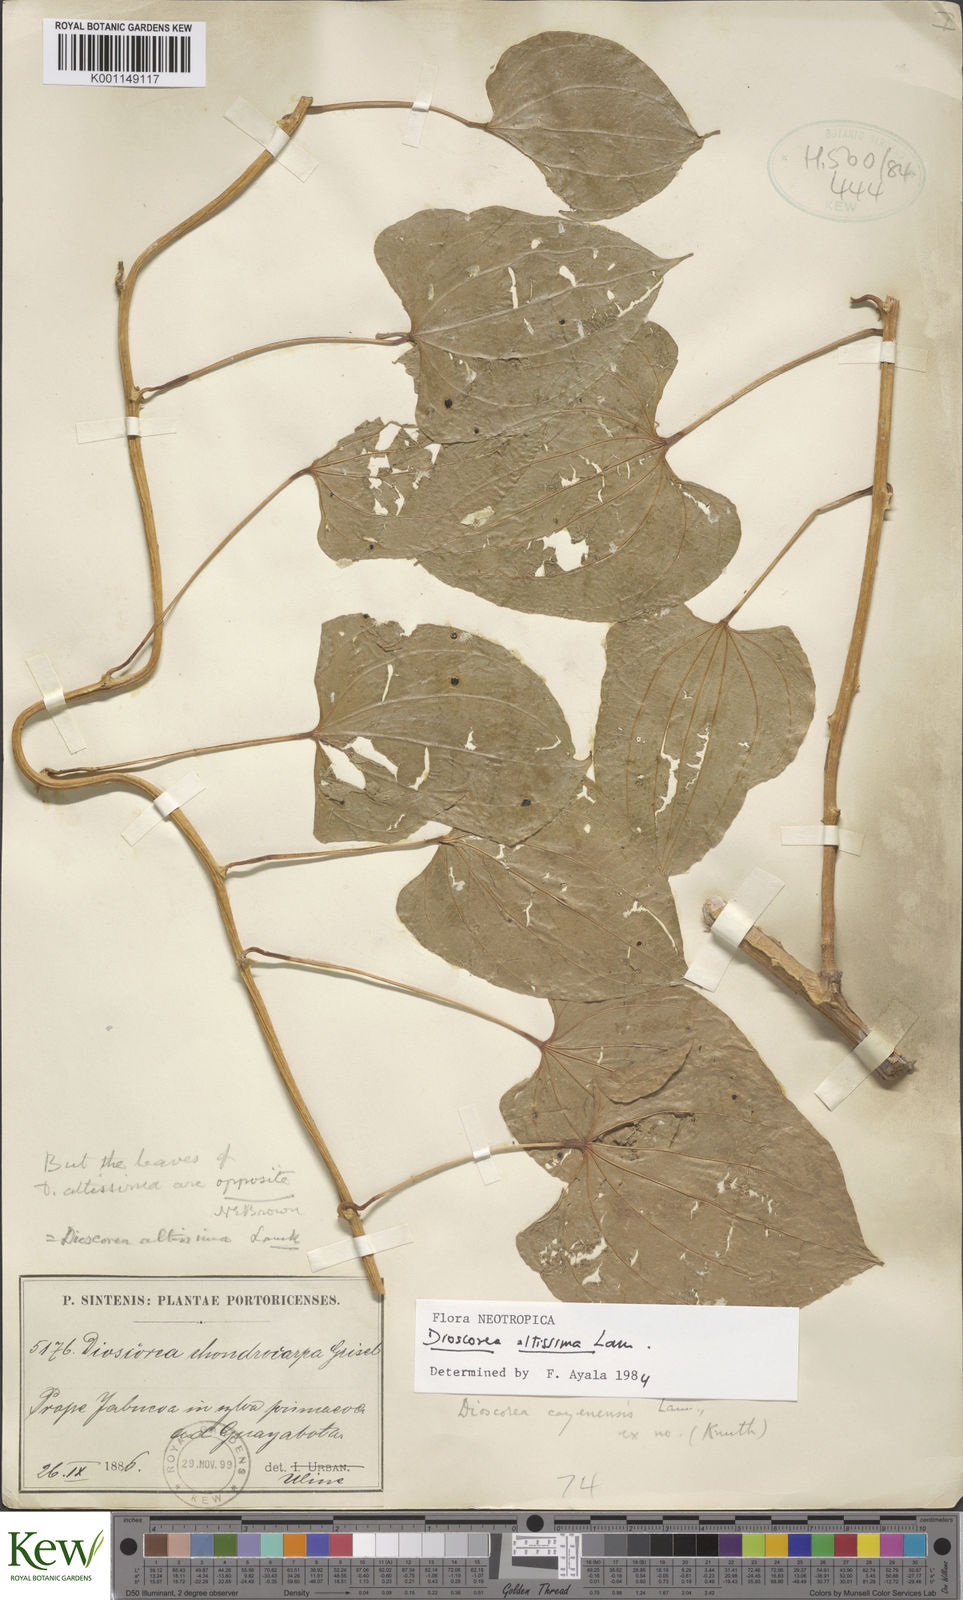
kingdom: Plantae
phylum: Tracheophyta
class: Liliopsida
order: Dioscoreales
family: Dioscoreaceae
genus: Dioscorea
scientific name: Dioscorea cayenensis
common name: Attoto yam
